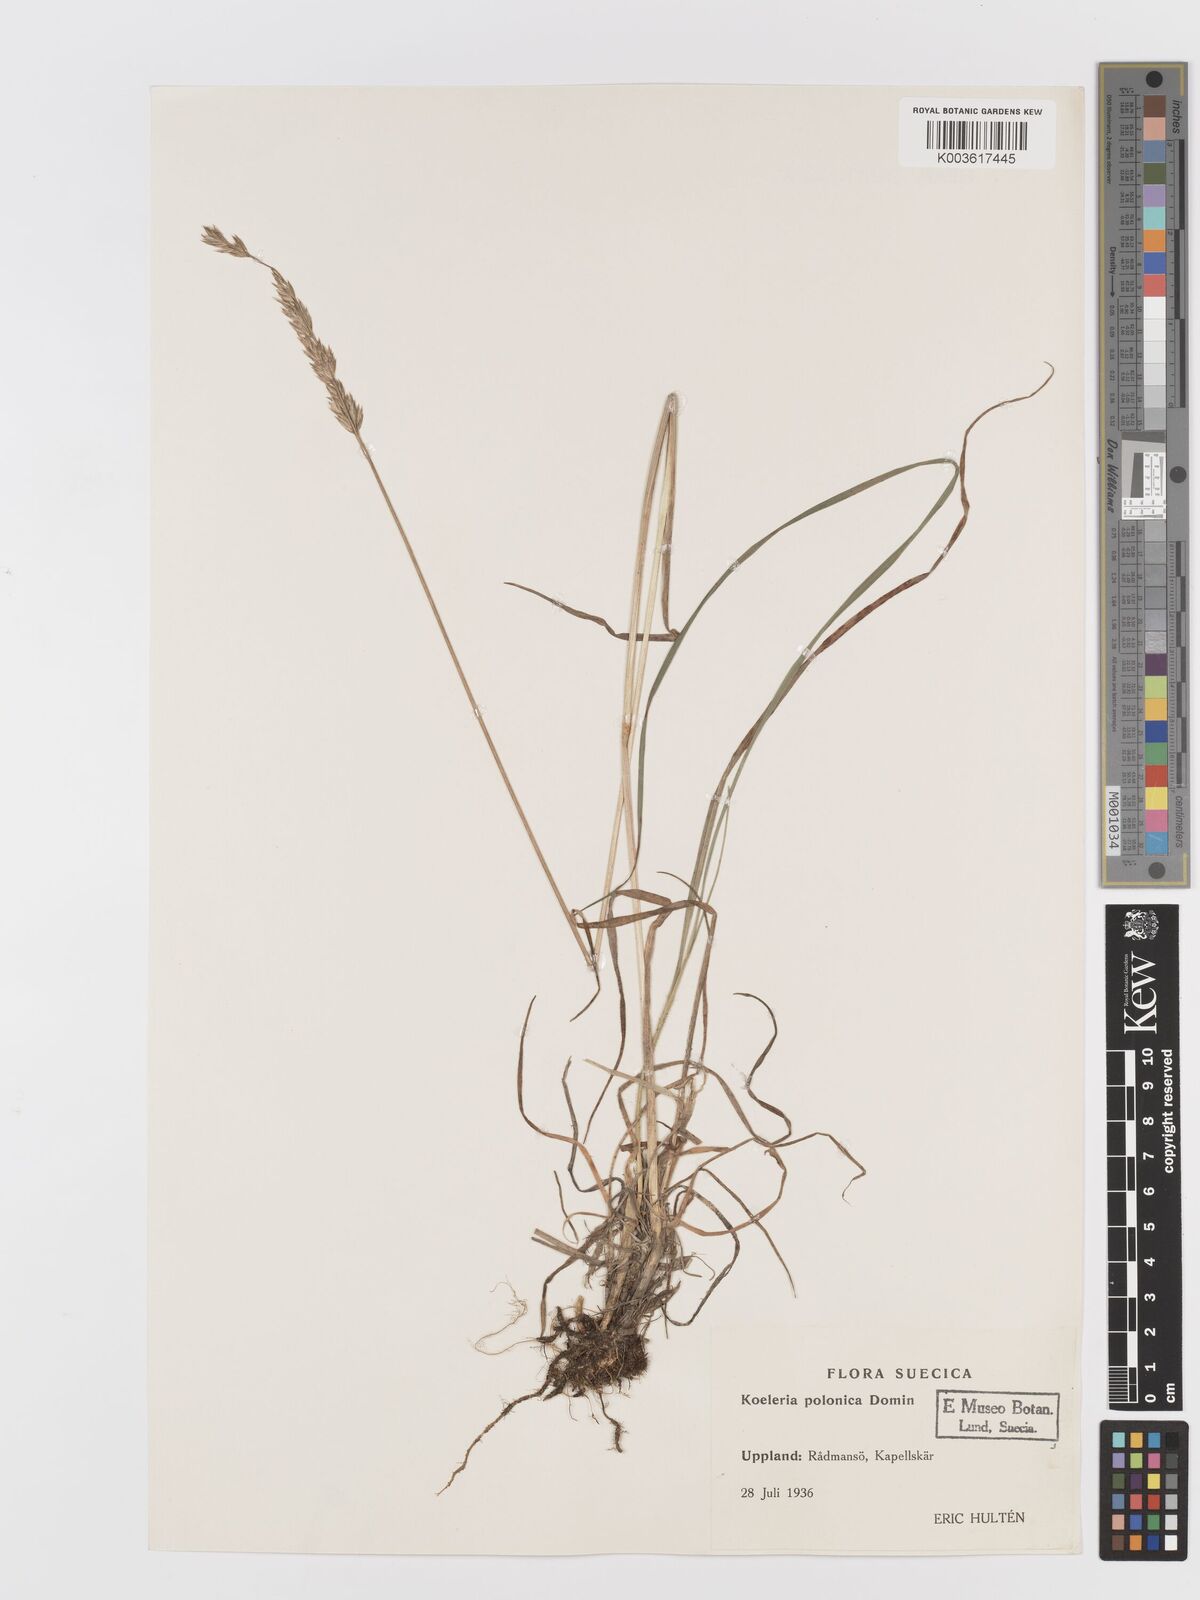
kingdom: Plantae
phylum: Tracheophyta
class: Liliopsida
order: Poales
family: Poaceae
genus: Koeleria
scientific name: Koeleria pyramidata
